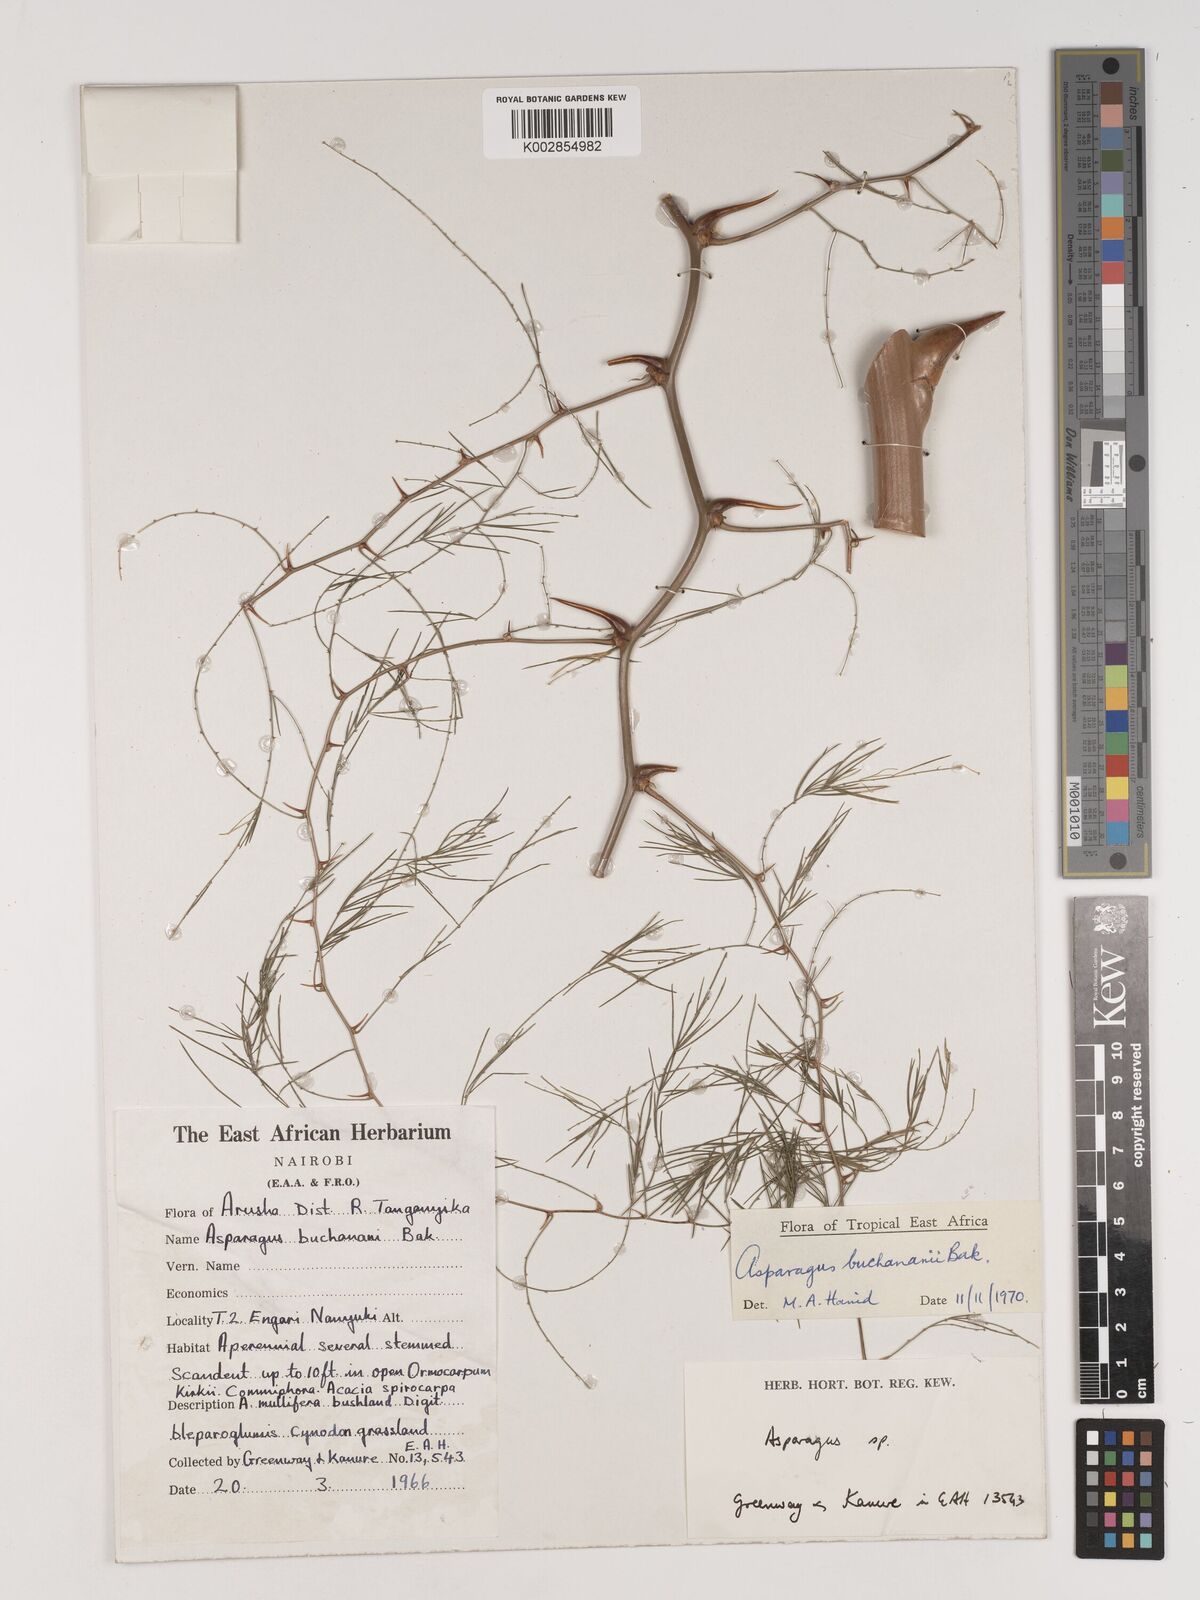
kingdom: Plantae
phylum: Tracheophyta
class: Liliopsida
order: Asparagales
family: Asparagaceae
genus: Asparagus
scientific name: Asparagus buchananii
